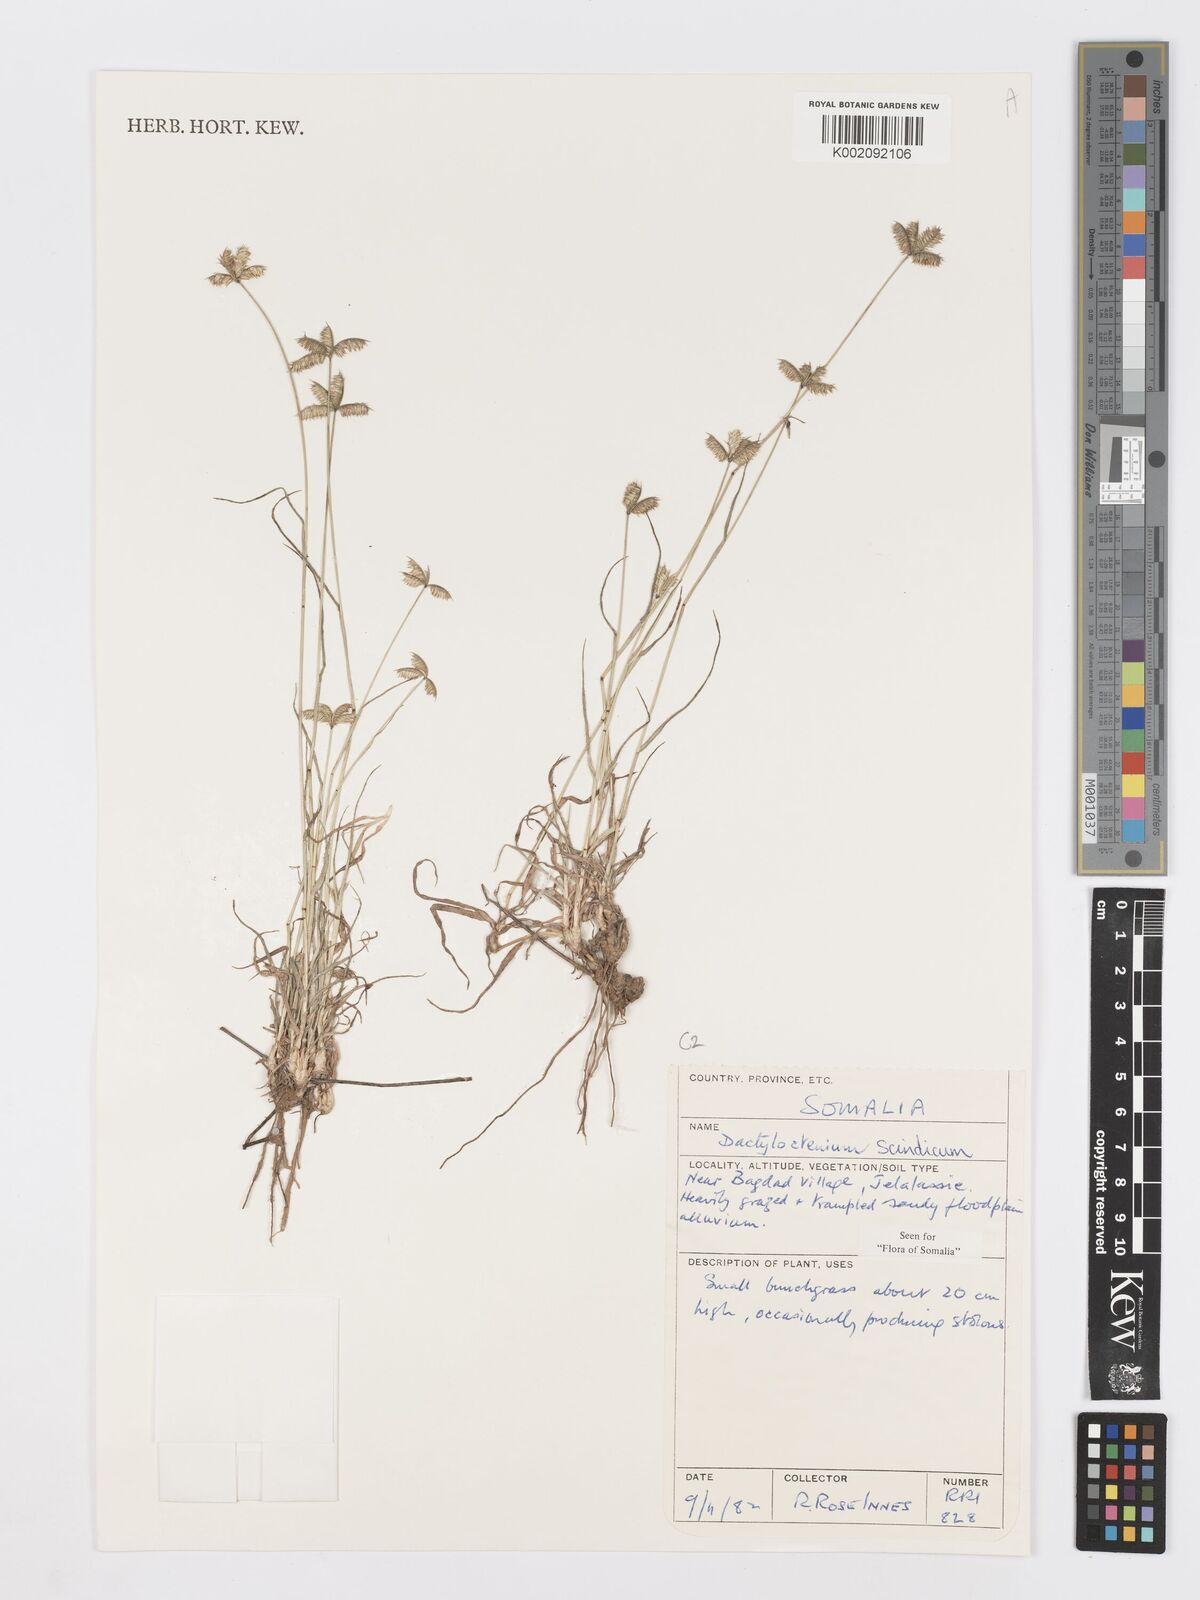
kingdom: Plantae
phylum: Tracheophyta
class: Liliopsida
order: Poales
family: Poaceae
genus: Dactyloctenium
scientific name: Dactyloctenium scindicum
